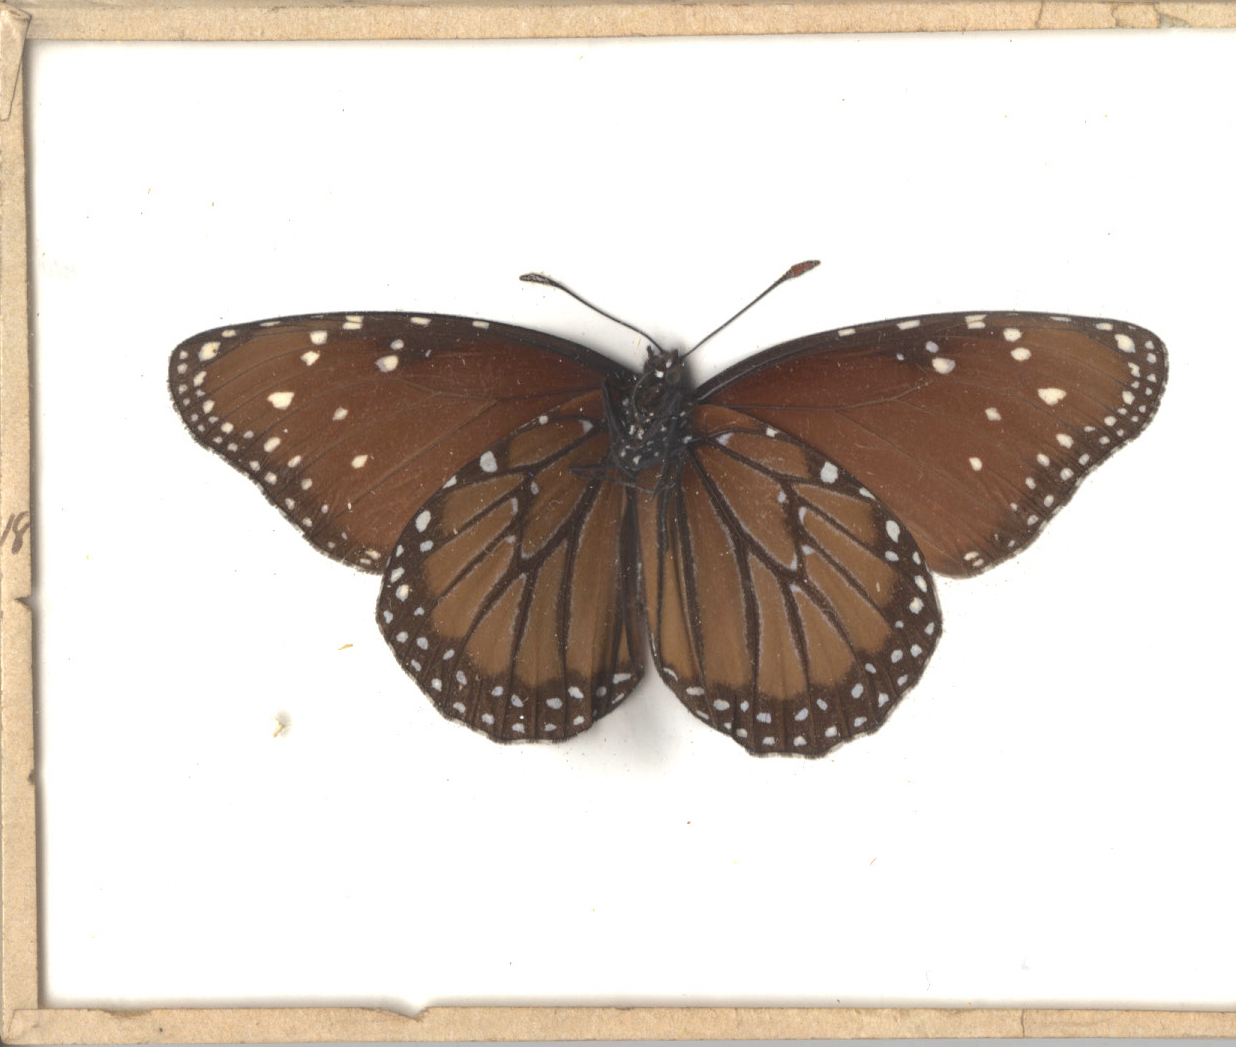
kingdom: Animalia
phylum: Arthropoda
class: Insecta
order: Lepidoptera
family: Nymphalidae
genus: Danaus
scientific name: Danaus gilippus
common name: Queen
